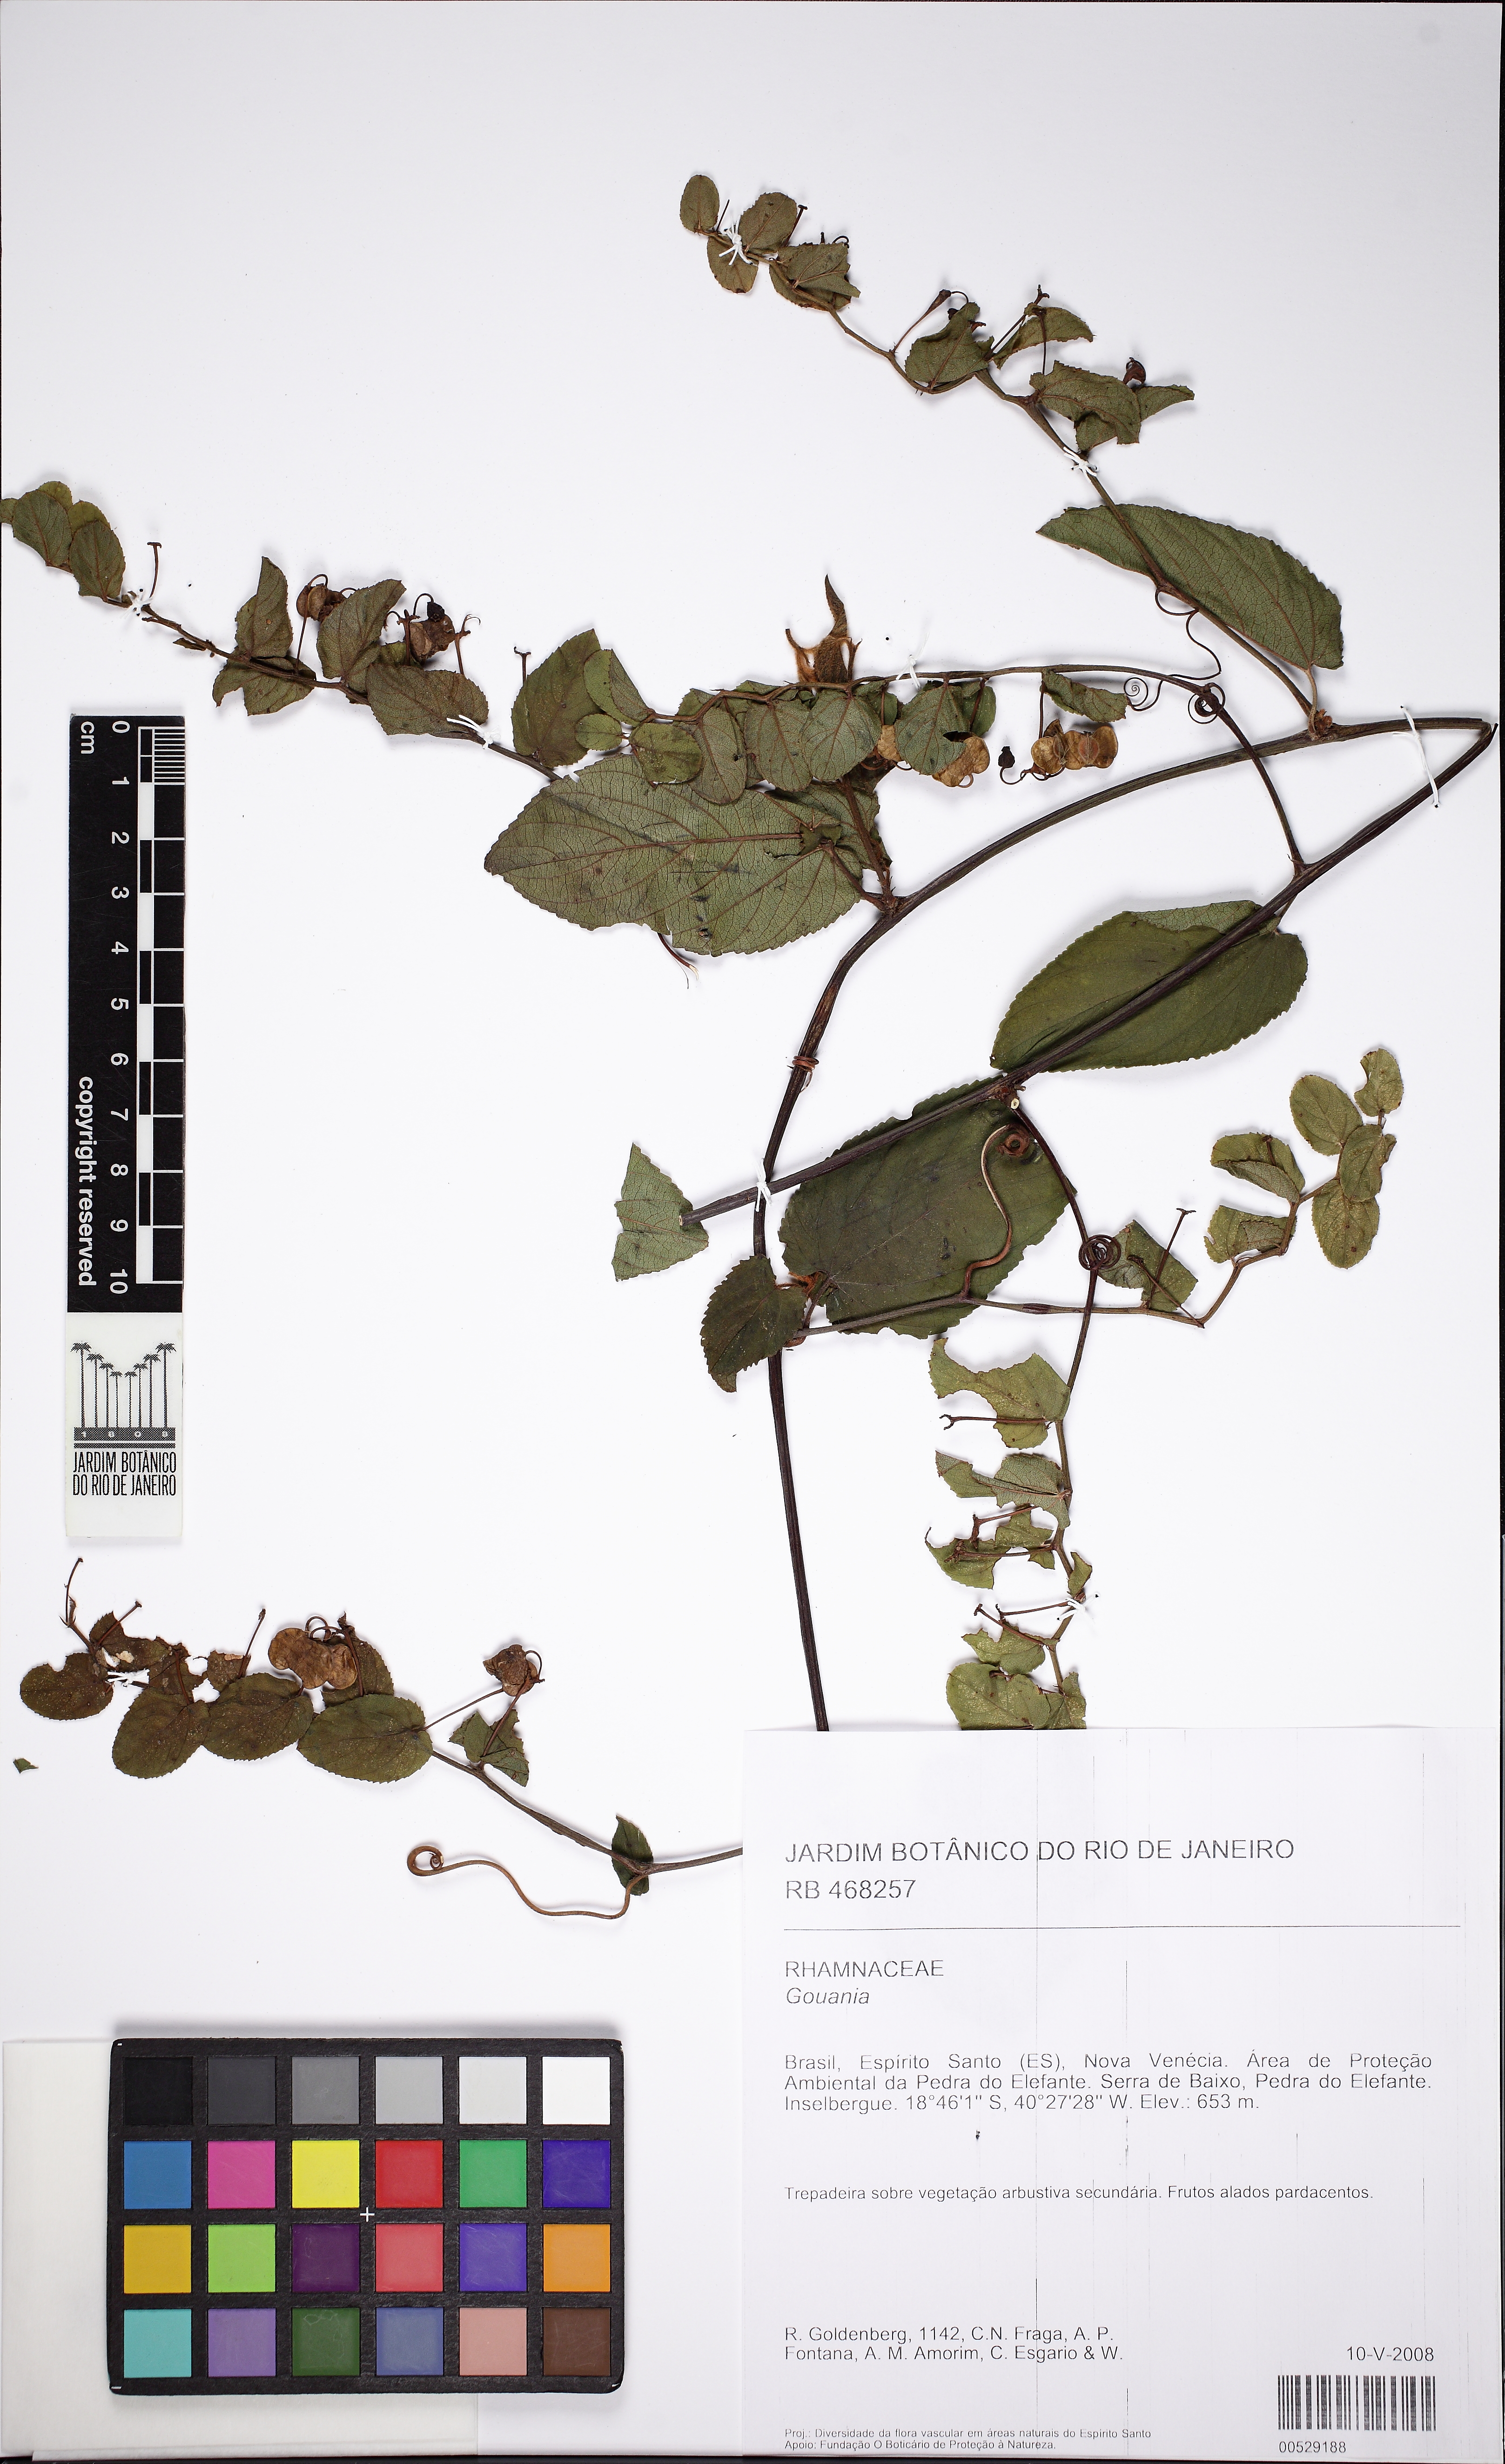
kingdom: Plantae
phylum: Tracheophyta
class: Magnoliopsida
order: Rosales
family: Rhamnaceae
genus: Gouania
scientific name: Gouania
